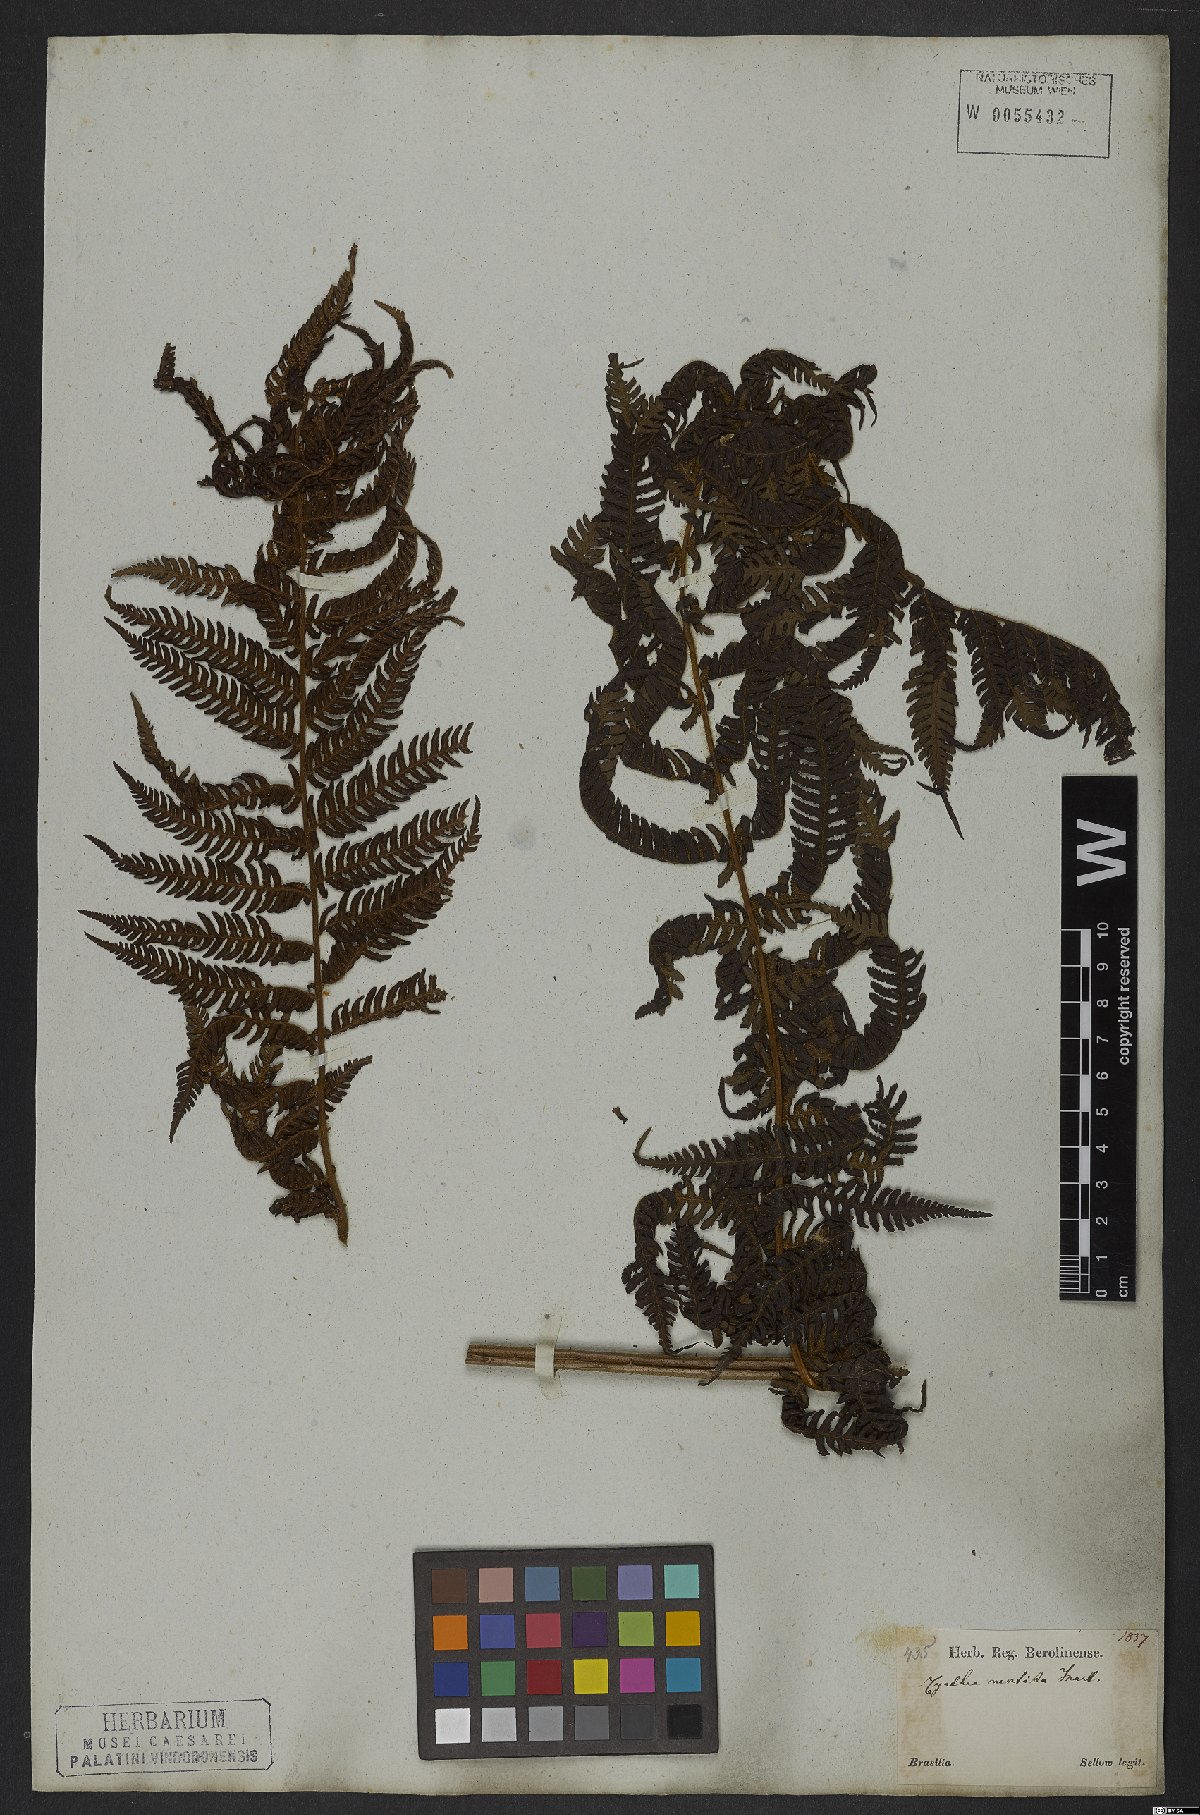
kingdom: Plantae
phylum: Tracheophyta
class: Polypodiopsida
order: Cyatheales
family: Cyatheaceae
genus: Cyathea
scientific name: Cyathea delgadii
